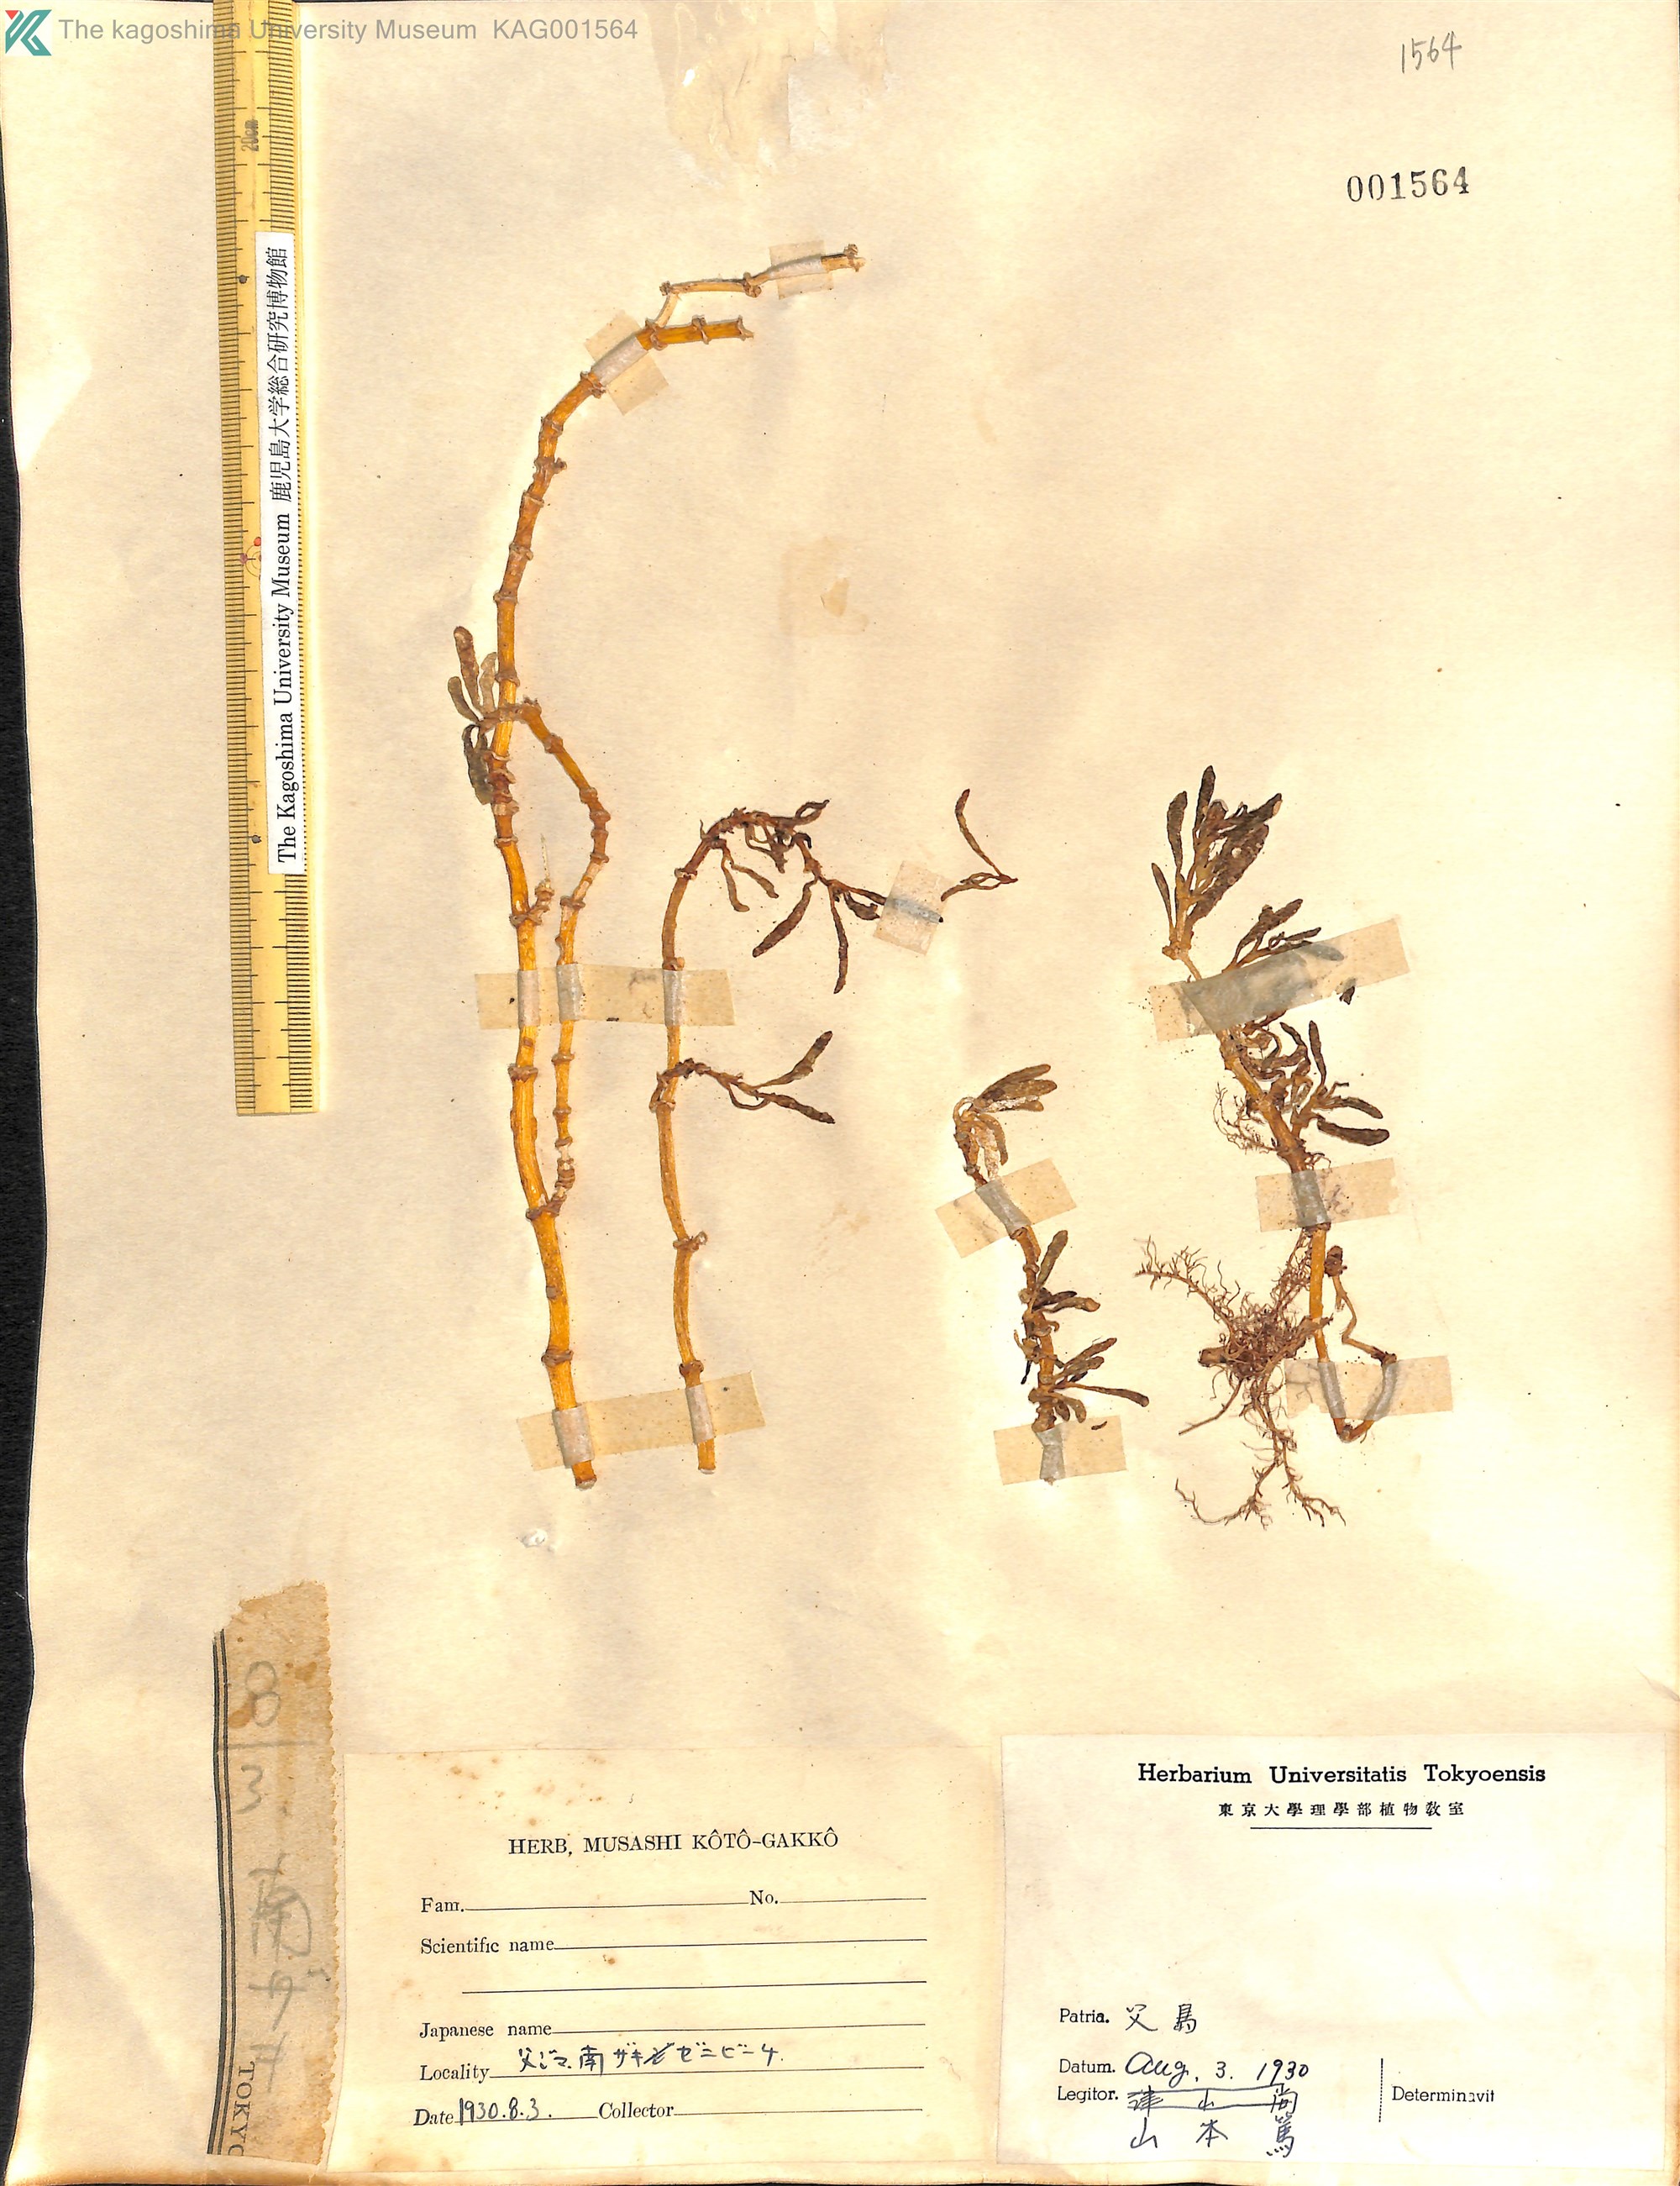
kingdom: Plantae
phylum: Tracheophyta
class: Magnoliopsida
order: Caryophyllales
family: Aizoaceae
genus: Sesuvium
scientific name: Sesuvium portulacastrum
